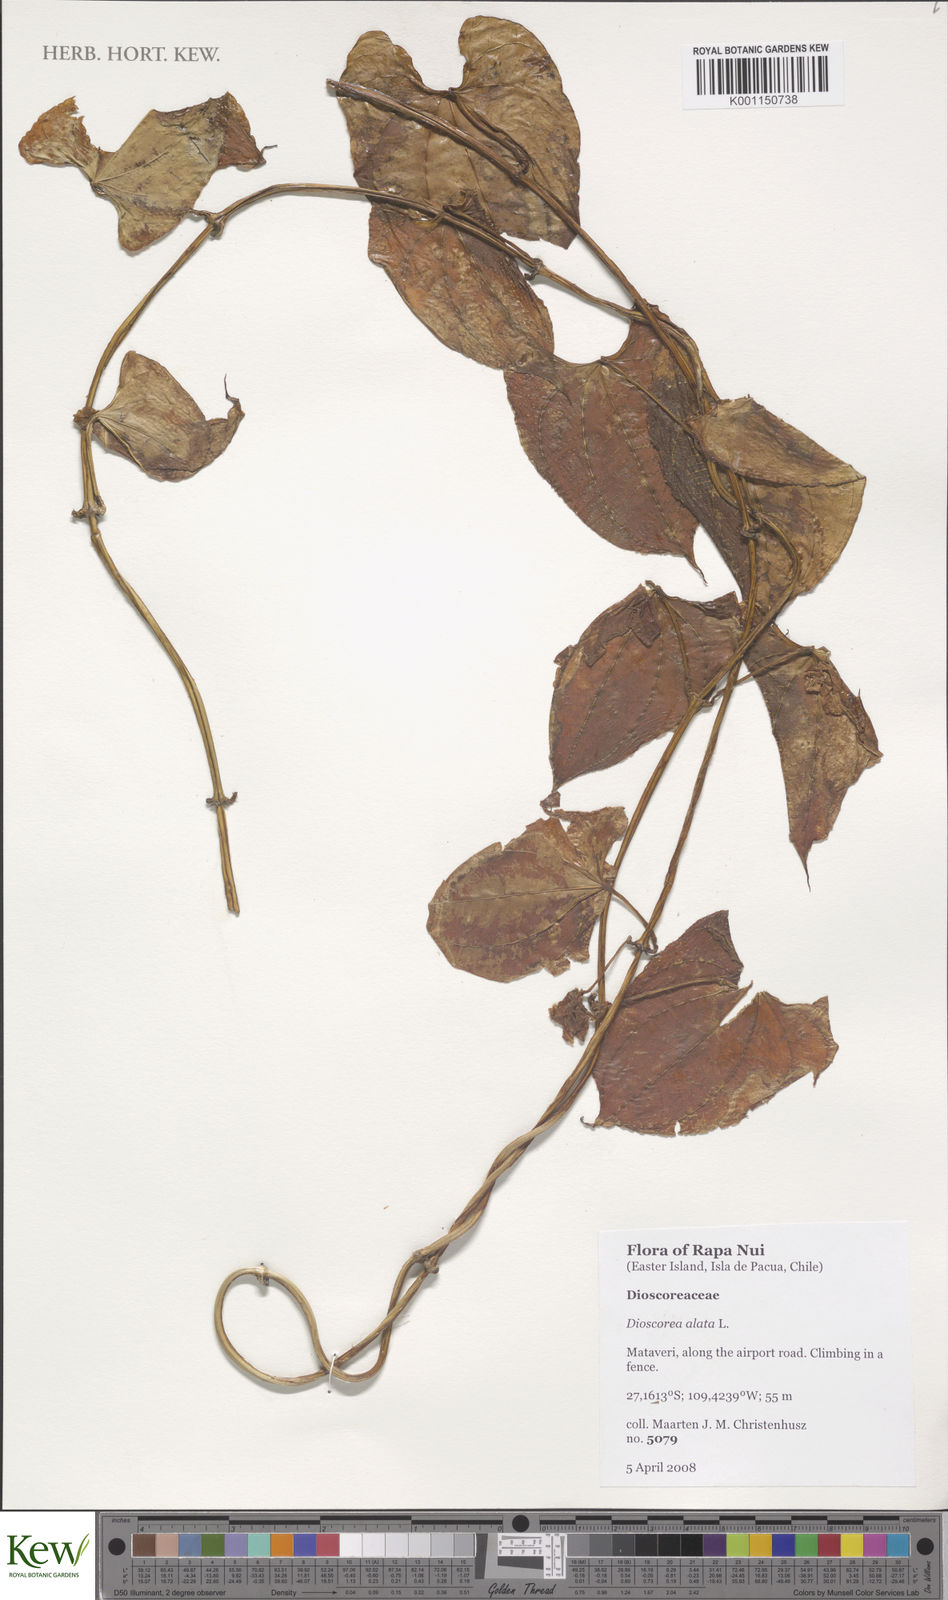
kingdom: Plantae
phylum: Tracheophyta
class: Liliopsida
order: Dioscoreales
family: Dioscoreaceae
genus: Dioscorea
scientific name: Dioscorea alata
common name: Water yam
